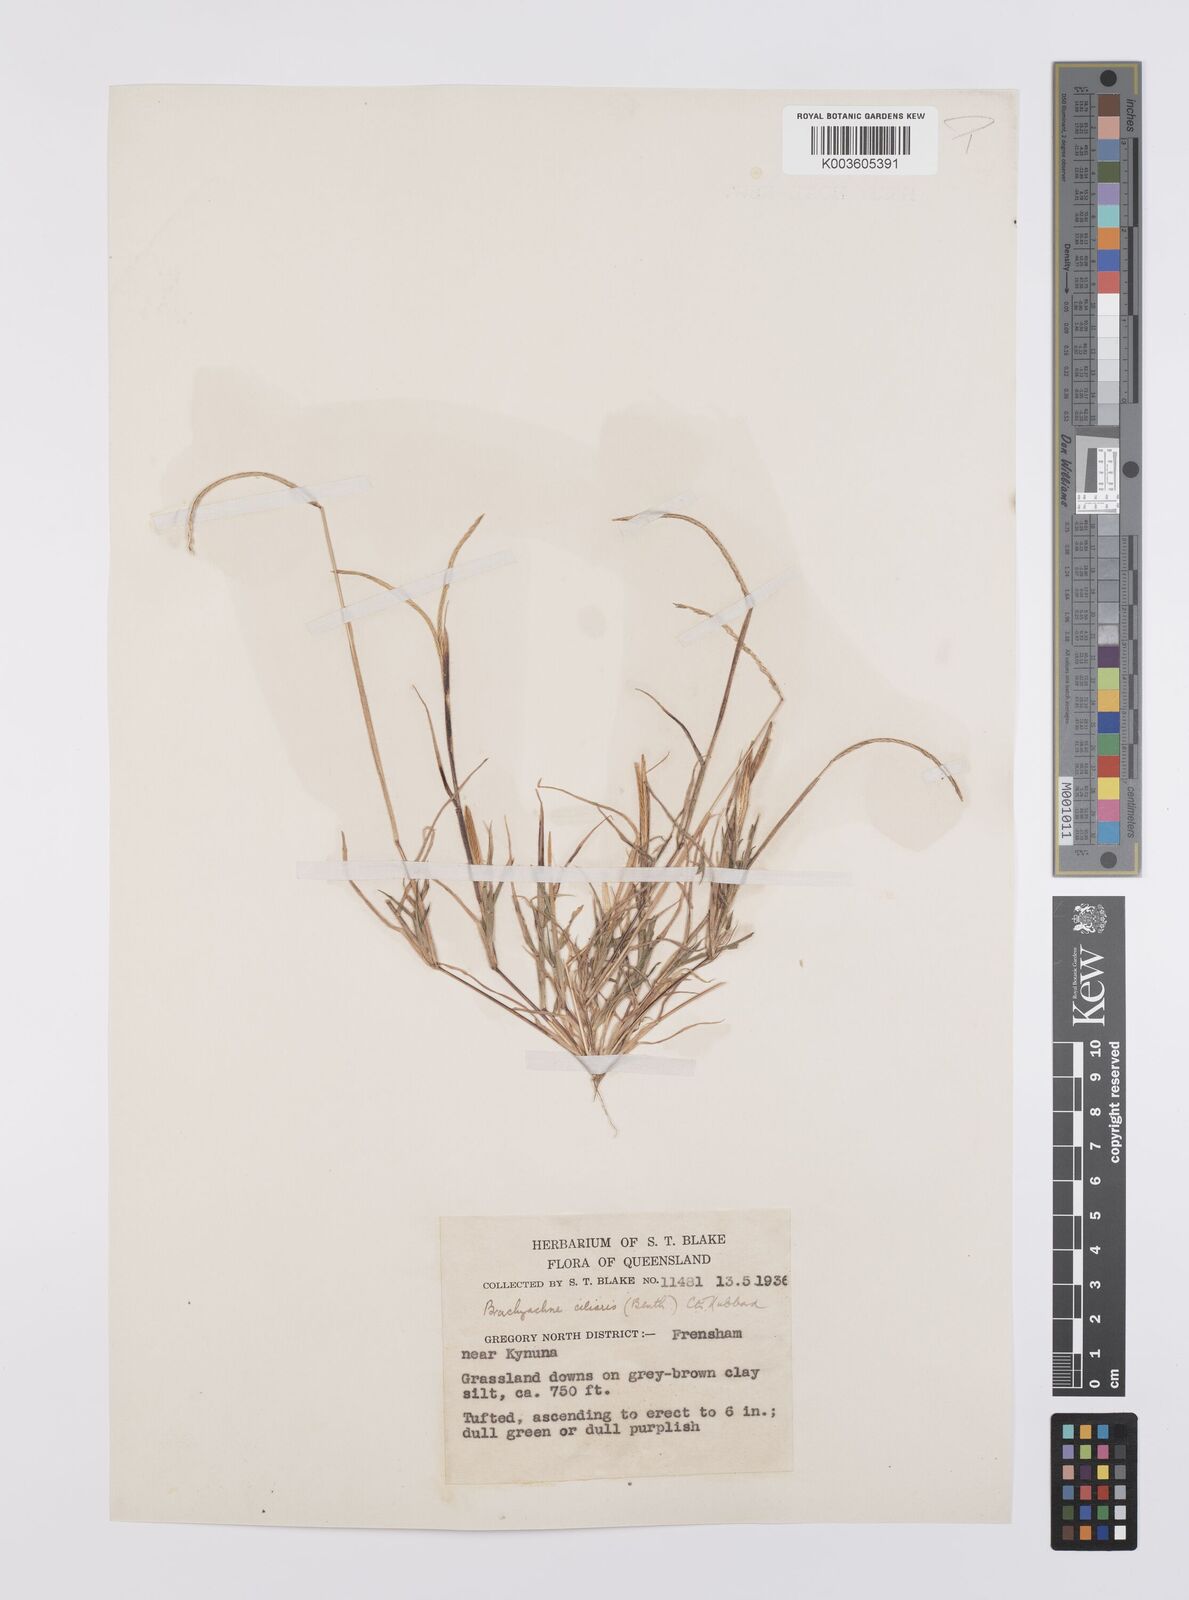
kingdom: Plantae
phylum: Tracheophyta
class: Liliopsida
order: Poales
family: Poaceae
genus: Cynodon
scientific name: Cynodon simonii
